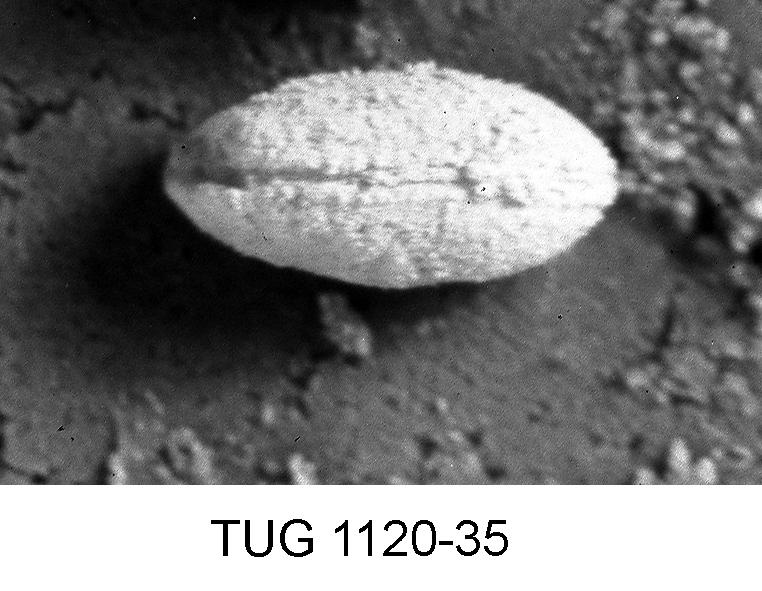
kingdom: Animalia
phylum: Arthropoda
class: Ostracoda
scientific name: Ostracoda
